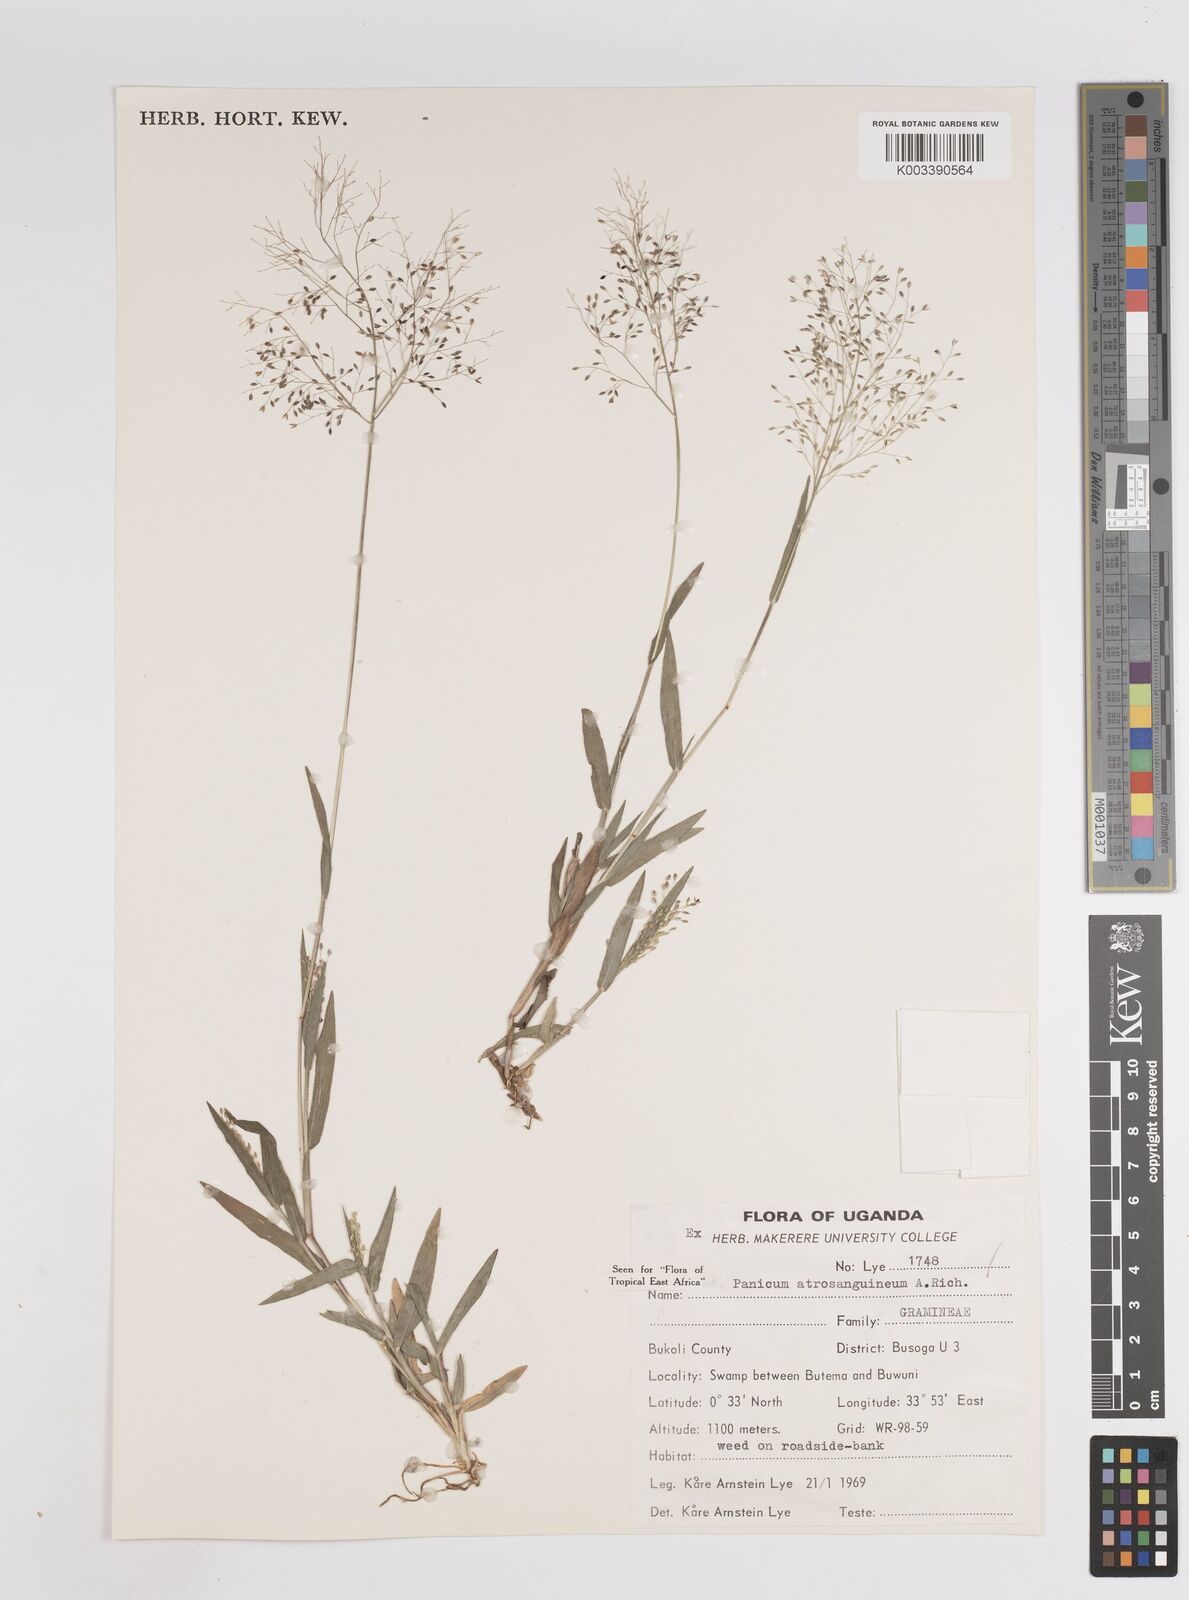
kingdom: Plantae
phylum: Tracheophyta
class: Liliopsida
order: Poales
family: Poaceae
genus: Panicum
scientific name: Panicum atrosanguineum
